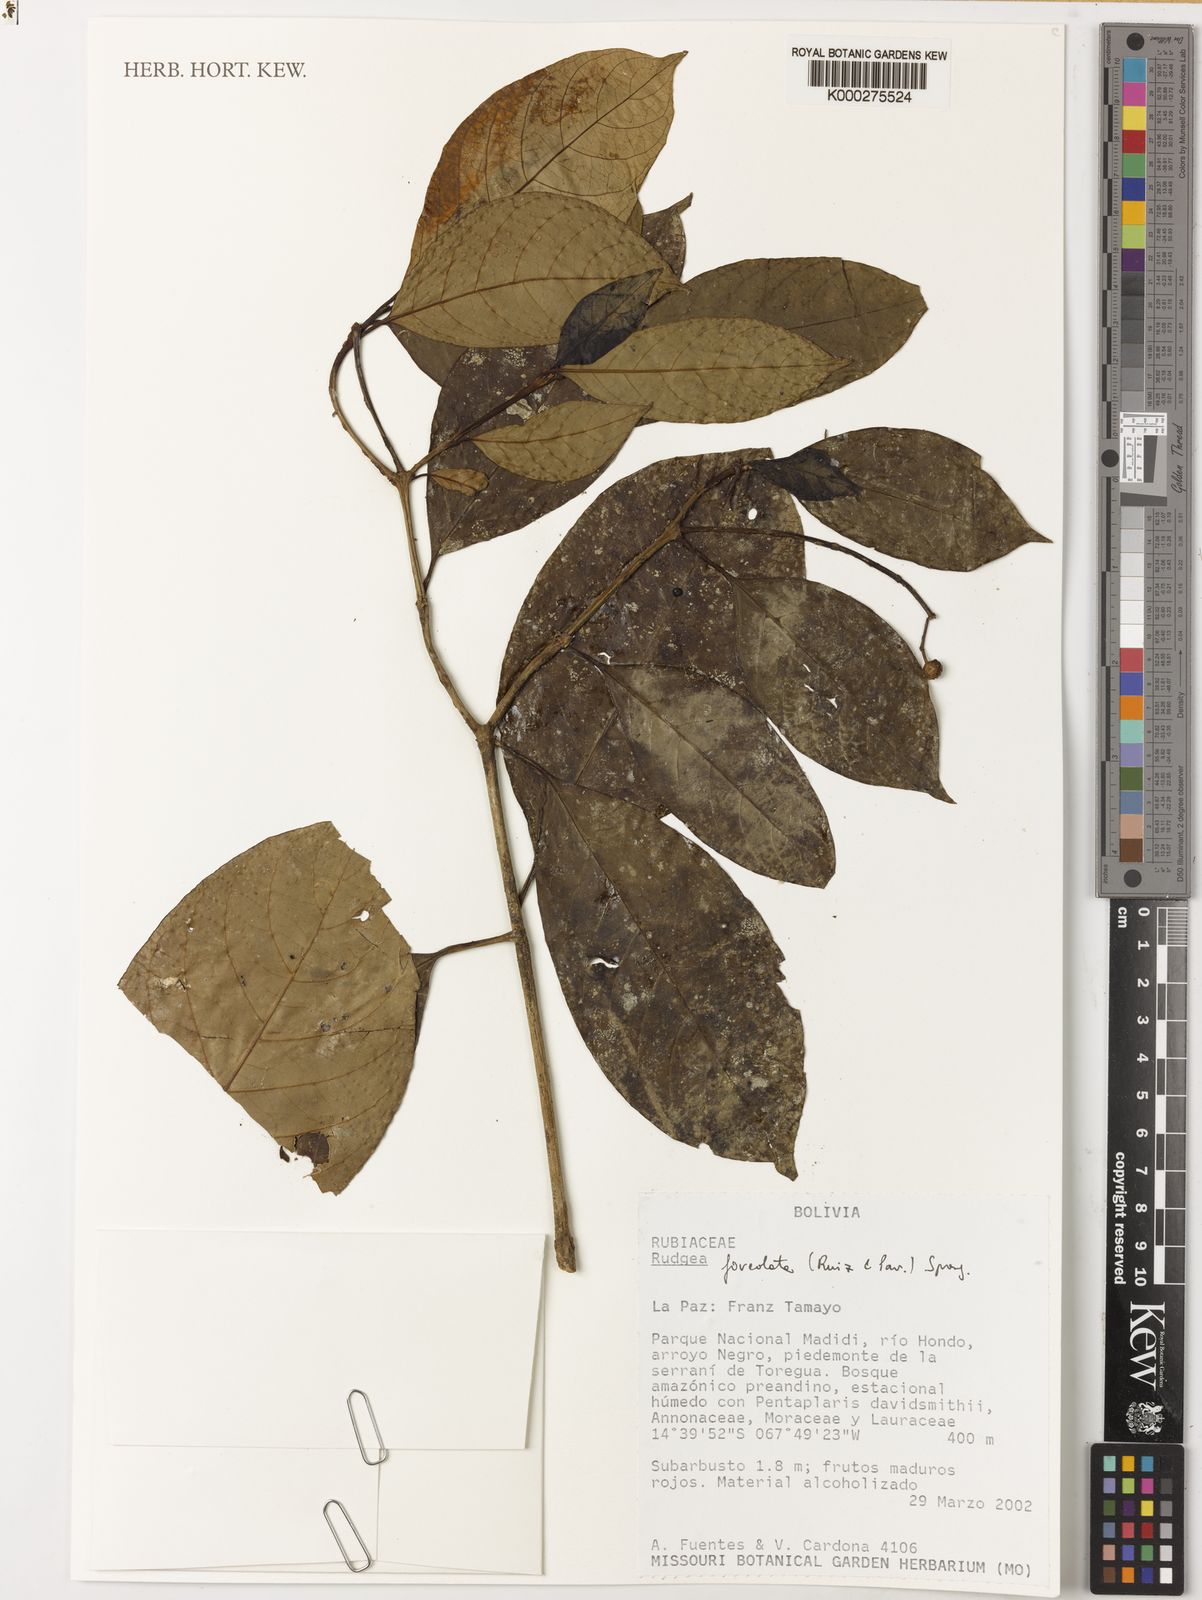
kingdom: Plantae
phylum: Tracheophyta
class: Magnoliopsida
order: Gentianales
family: Rubiaceae
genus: Rudgea
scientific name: Rudgea
